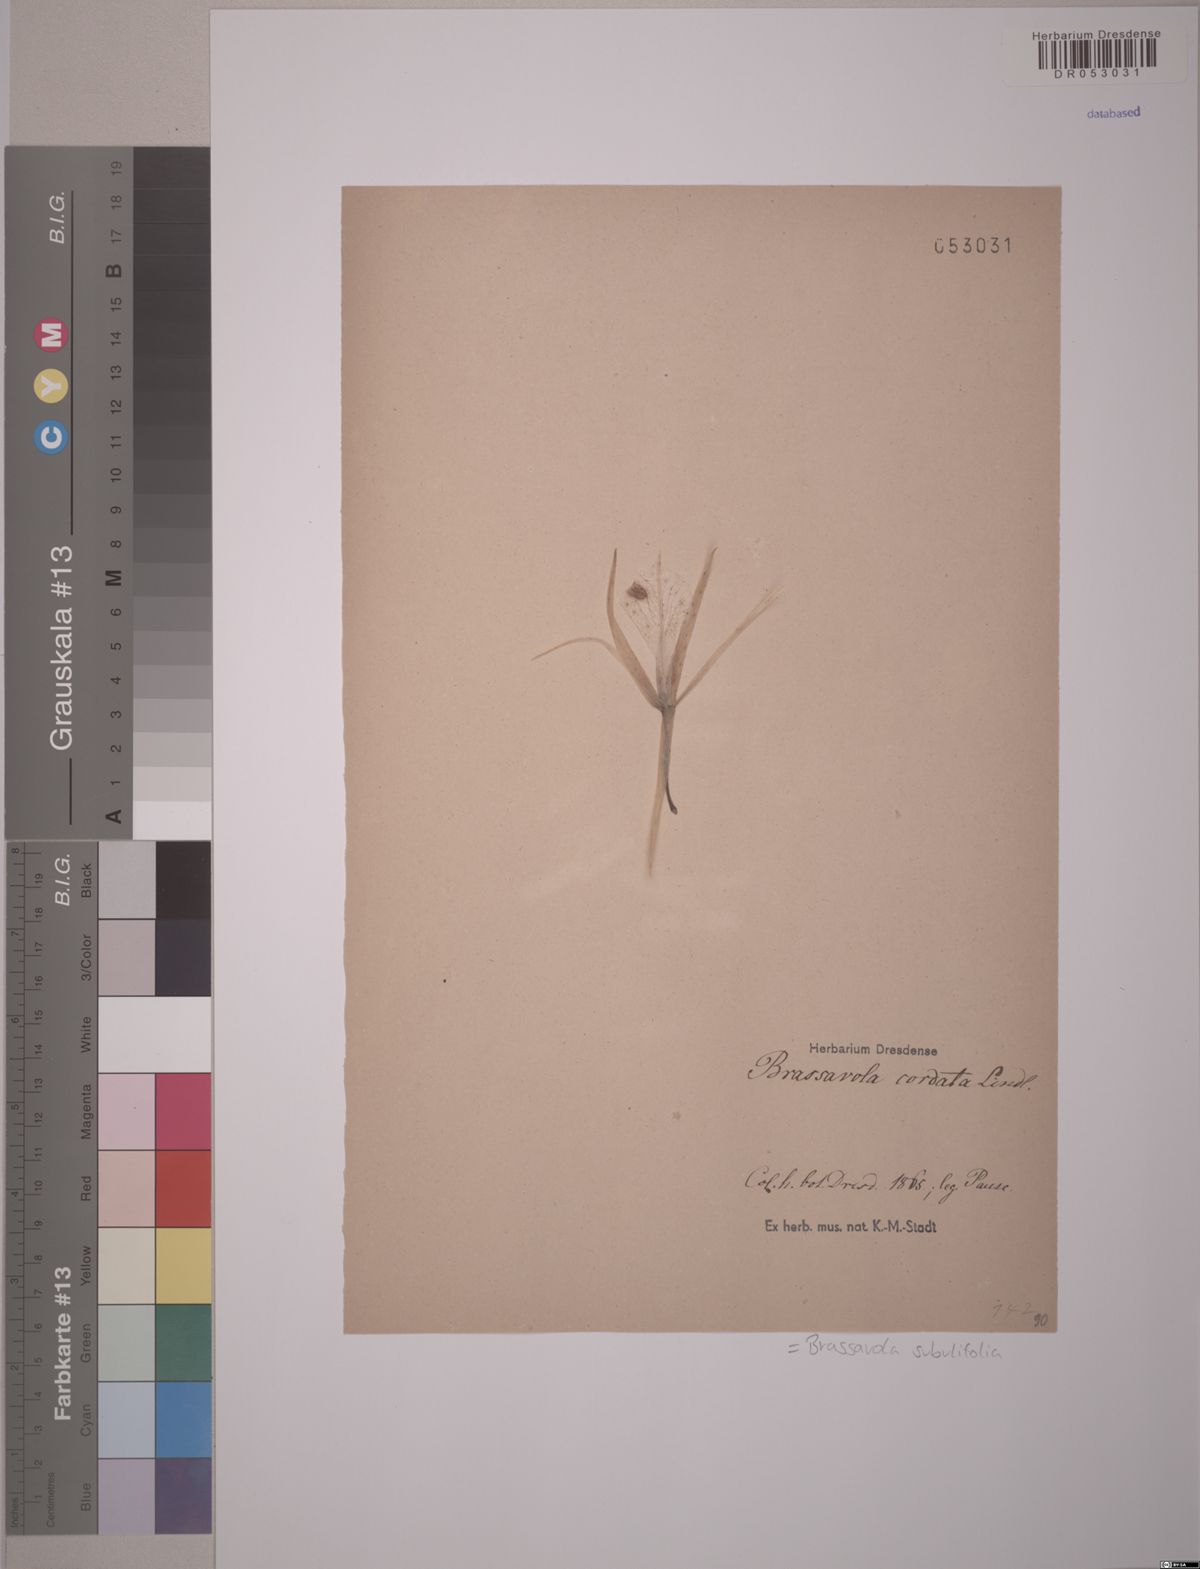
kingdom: Plantae
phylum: Tracheophyta
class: Liliopsida
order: Asparagales
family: Orchidaceae
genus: Brassavola
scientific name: Brassavola subulifolia
